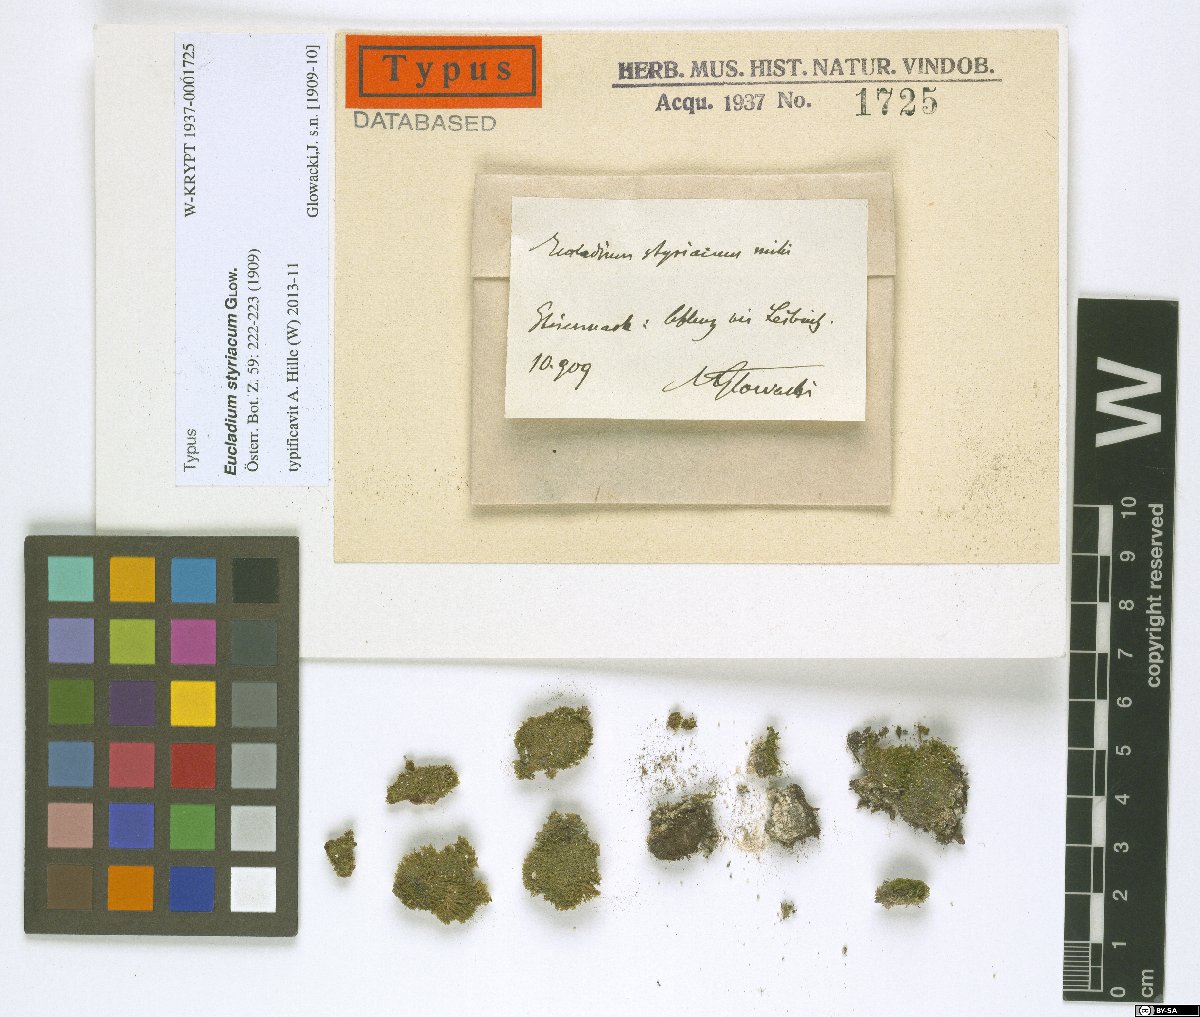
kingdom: Plantae
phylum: Bryophyta
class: Bryopsida
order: Pottiales
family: Pottiaceae
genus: Eucladium
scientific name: Eucladium verticillatum
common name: Whorled tufa-moss
